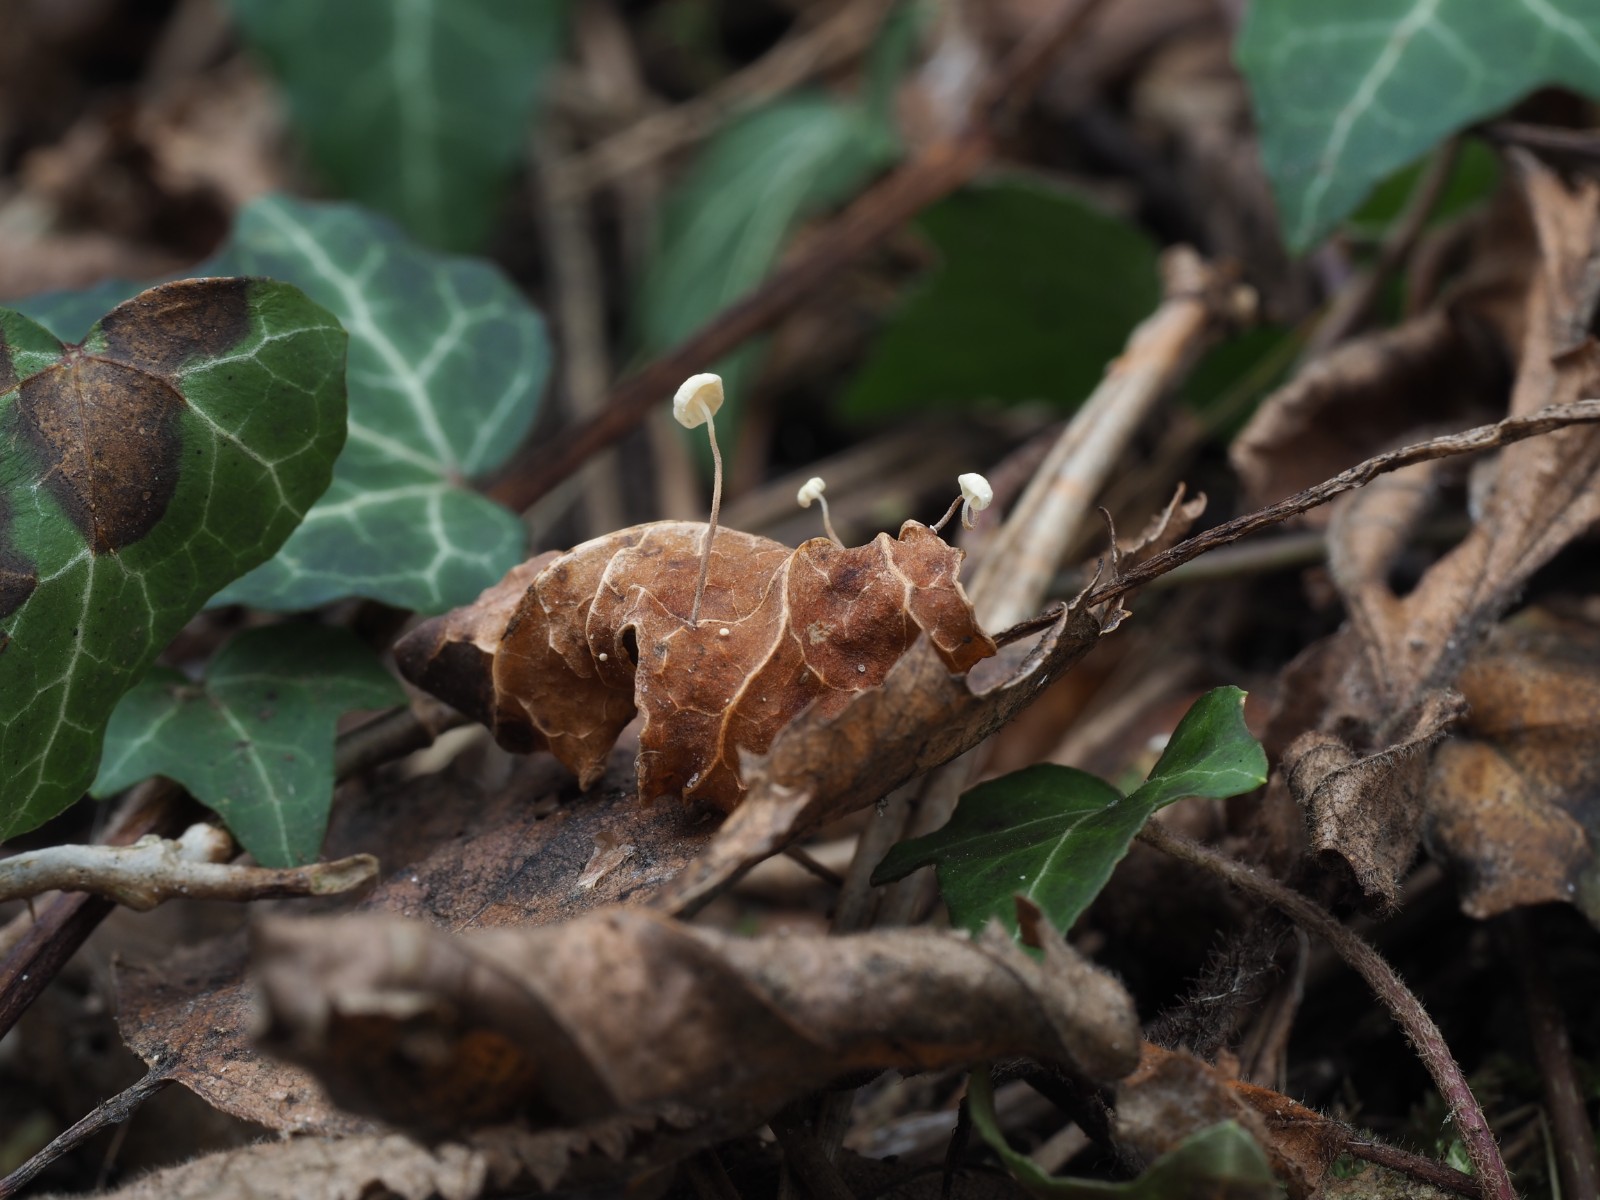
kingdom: Fungi
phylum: Basidiomycota
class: Agaricomycetes
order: Agaricales
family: Marasmiaceae
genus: Marasmius
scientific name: Marasmius epiphylloides
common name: vedbend-bruskhat
